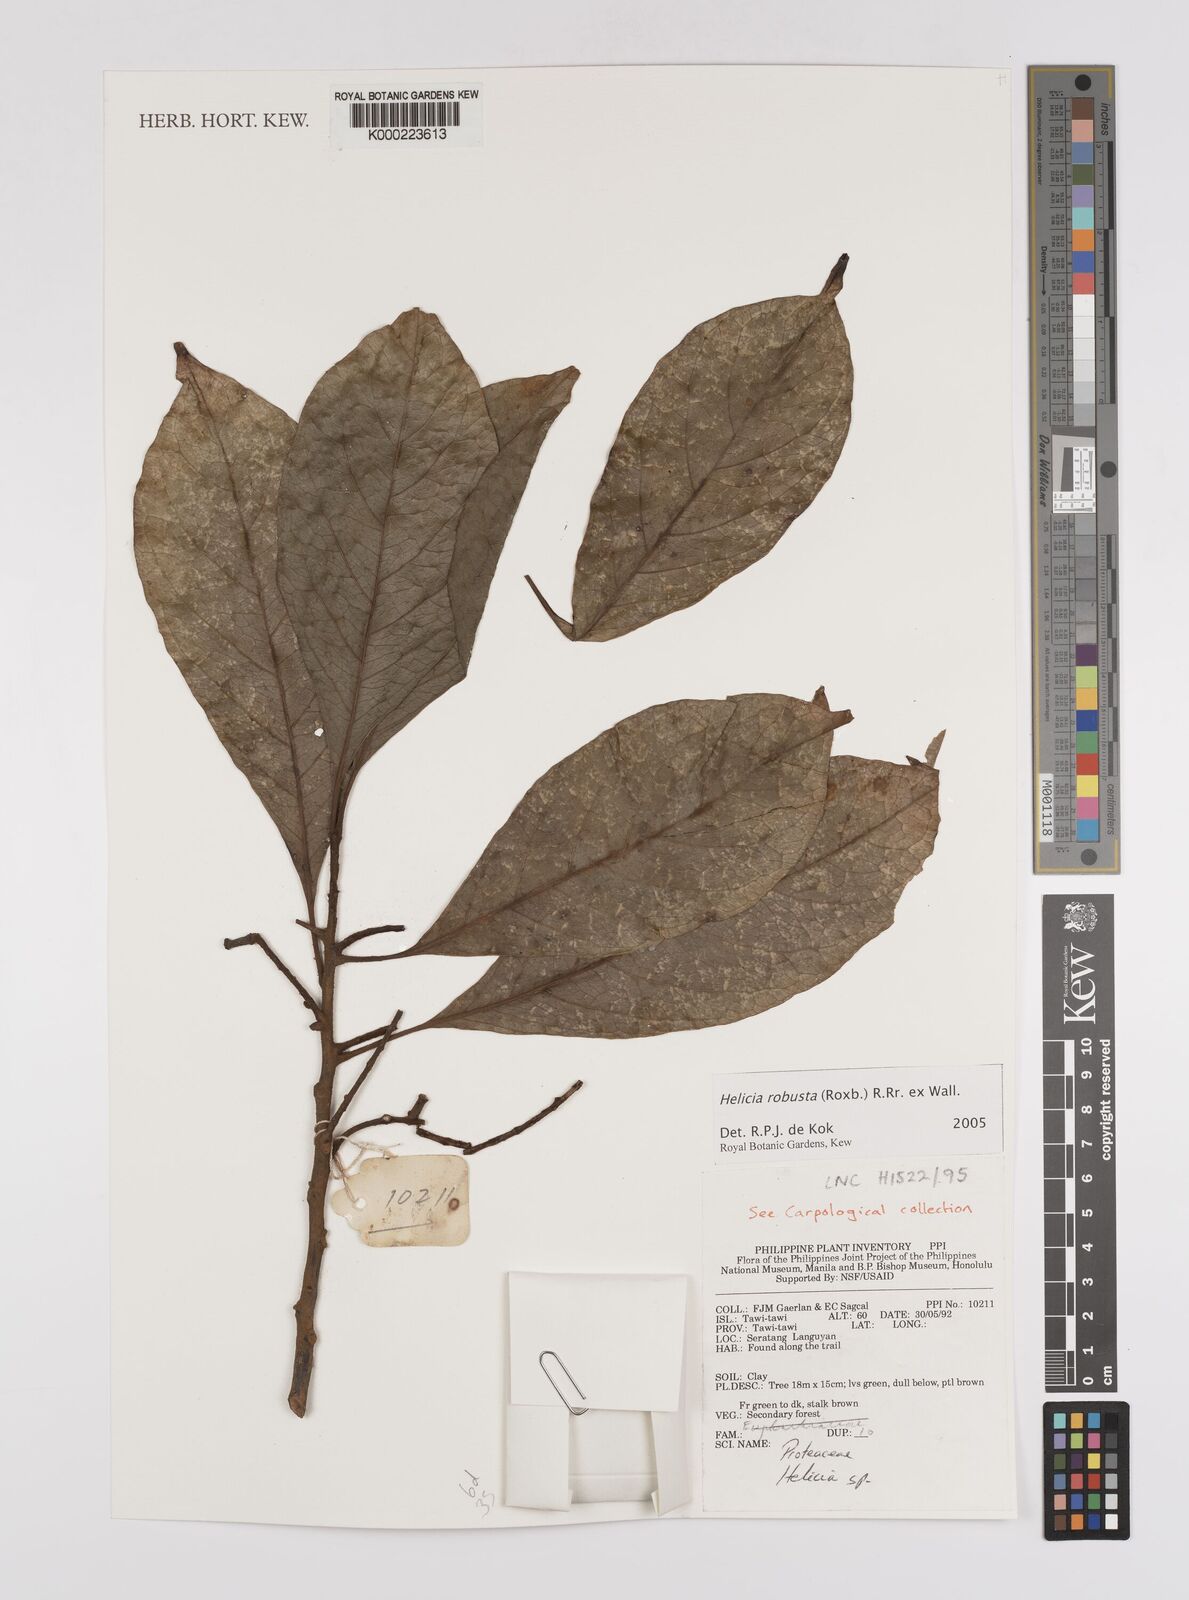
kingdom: Plantae
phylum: Tracheophyta
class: Magnoliopsida
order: Proteales
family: Proteaceae
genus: Helicia
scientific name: Helicia
